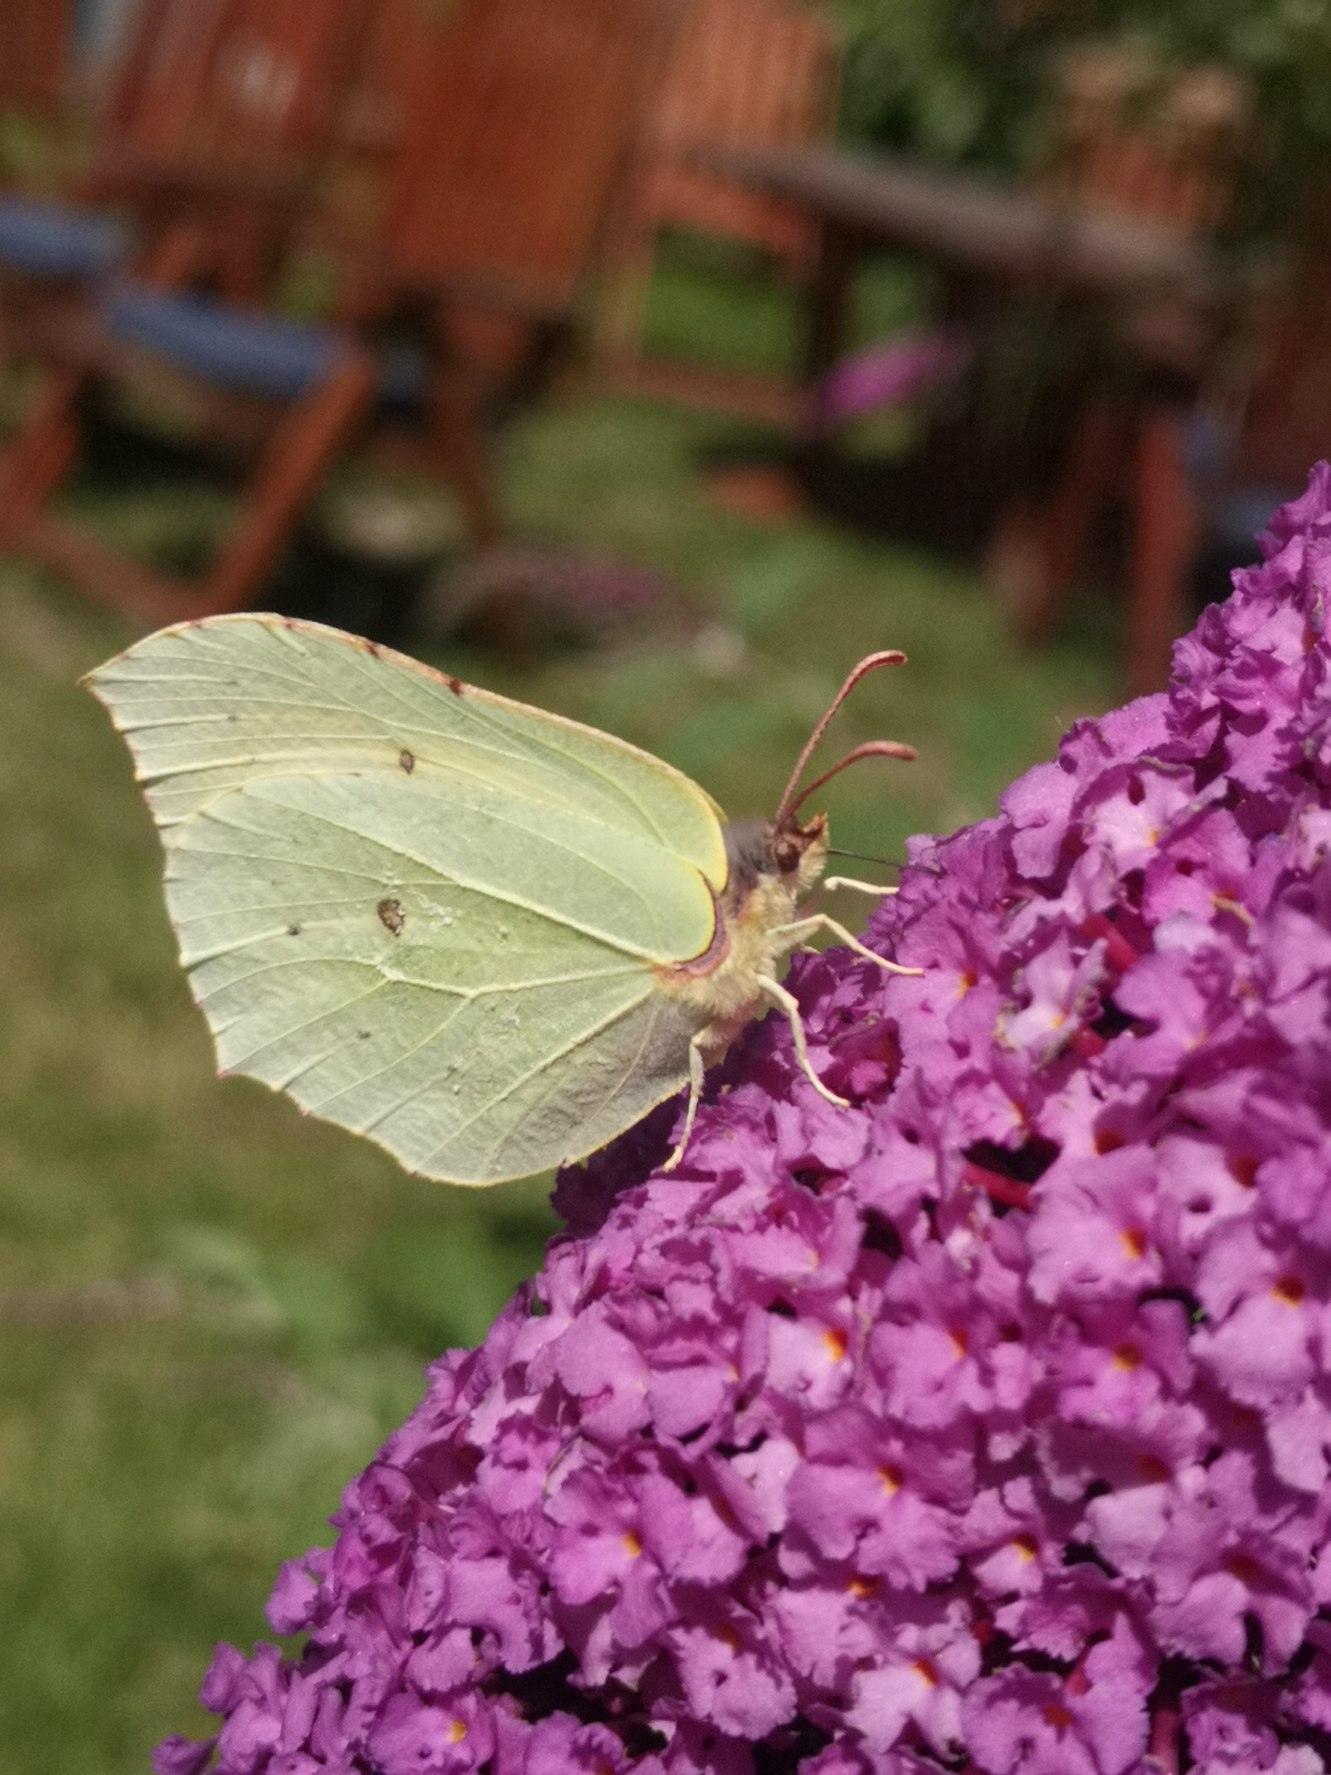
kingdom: Animalia
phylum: Arthropoda
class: Insecta
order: Lepidoptera
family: Pieridae
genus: Gonepteryx
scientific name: Gonepteryx rhamni
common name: Citronsommerfugl
